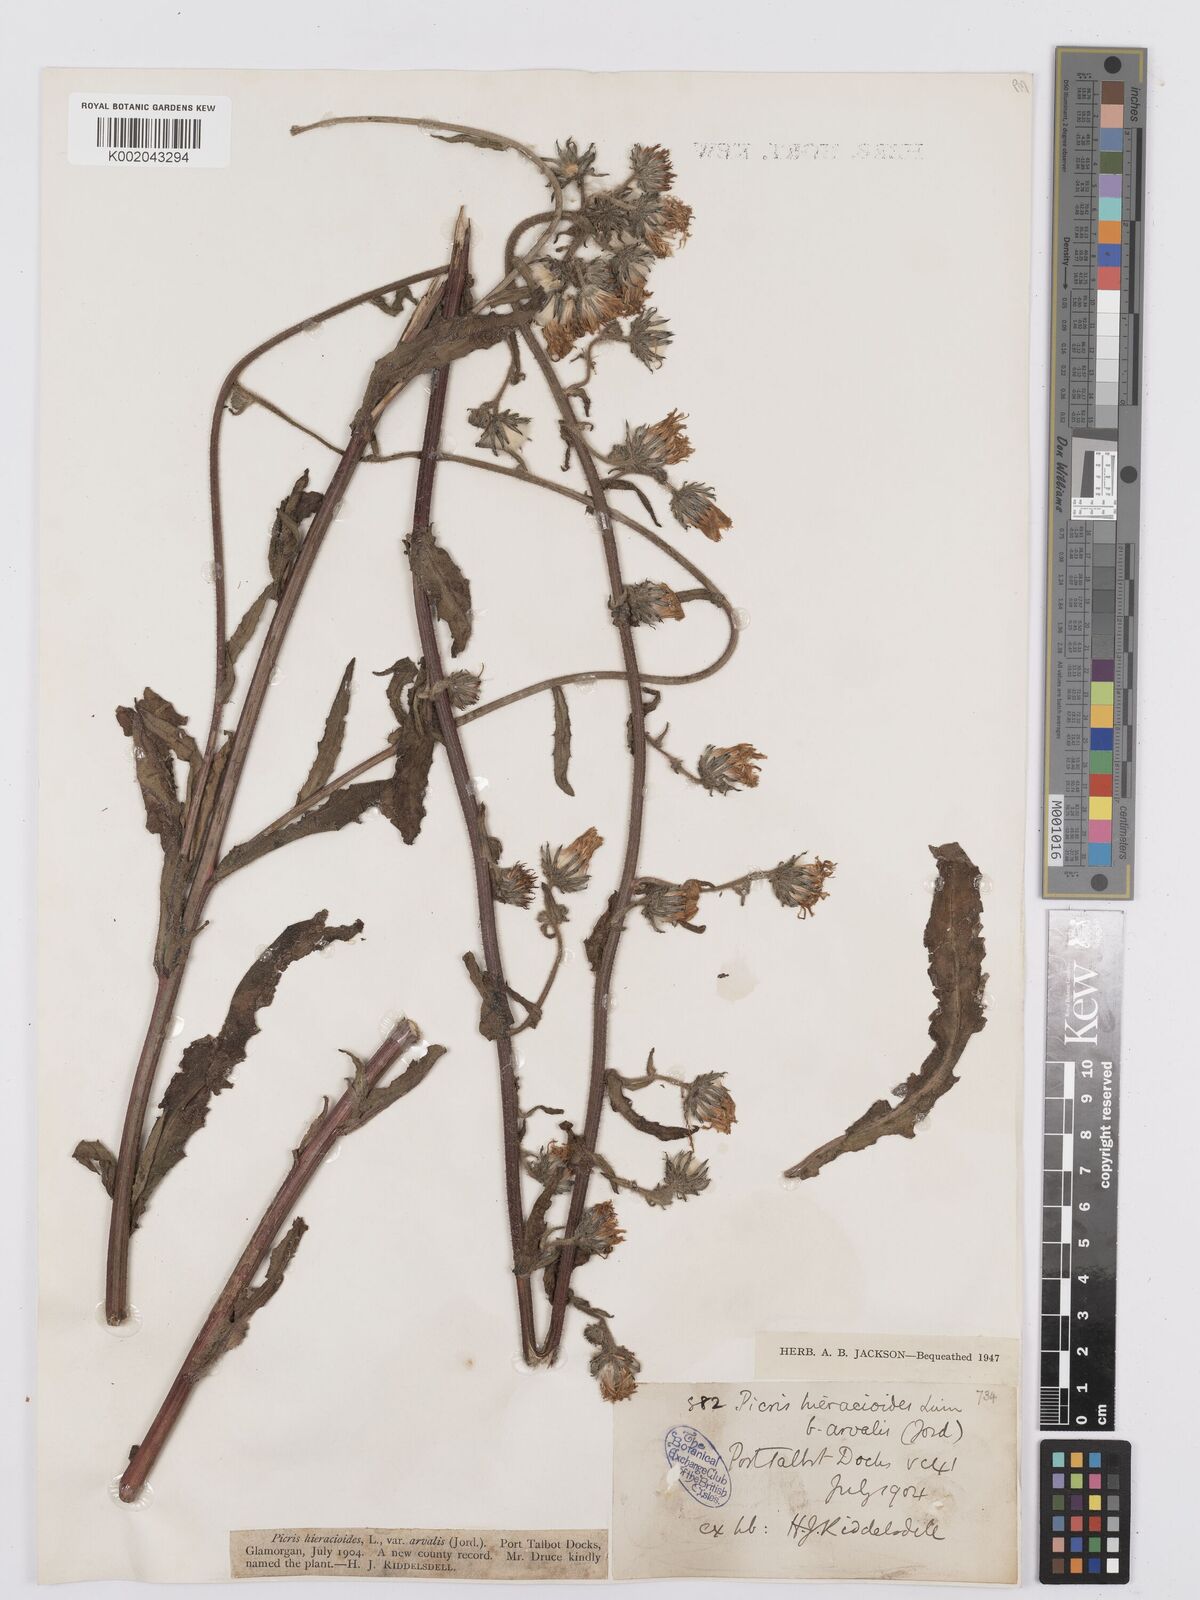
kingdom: Plantae
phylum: Tracheophyta
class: Magnoliopsida
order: Asterales
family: Asteraceae
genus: Picris
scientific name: Picris hieracioides
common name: Hawkweed oxtongue
